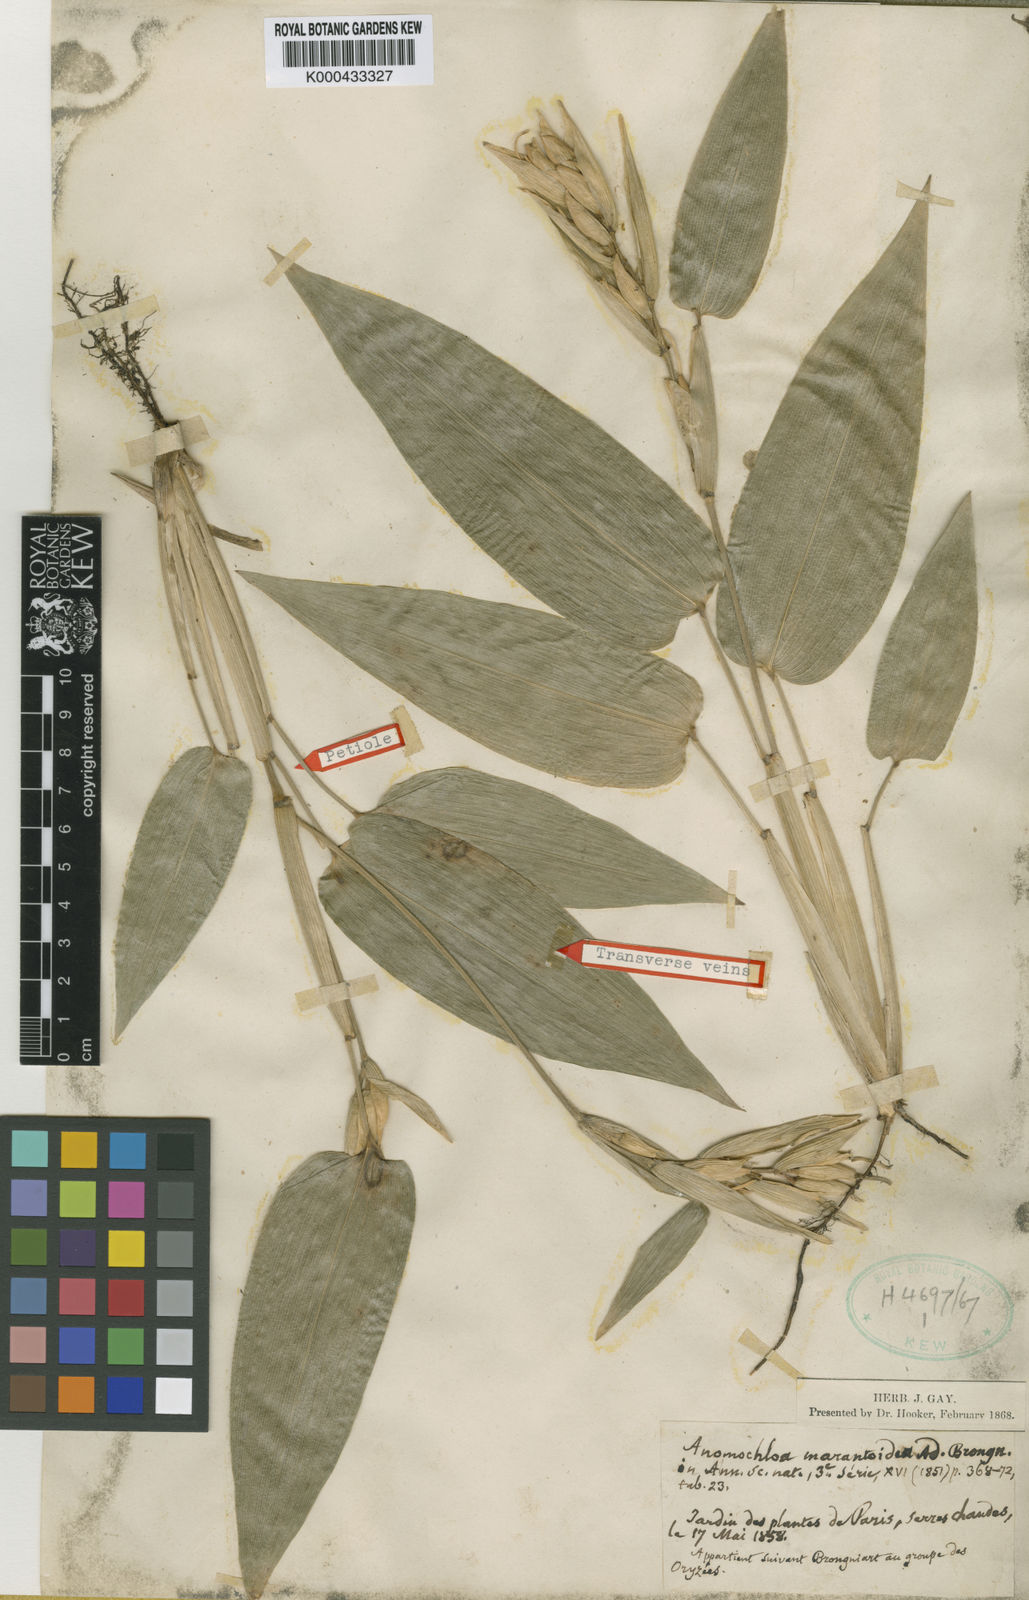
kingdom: Plantae
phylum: Tracheophyta
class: Liliopsida
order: Poales
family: Poaceae
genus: Anomochloa
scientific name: Anomochloa
